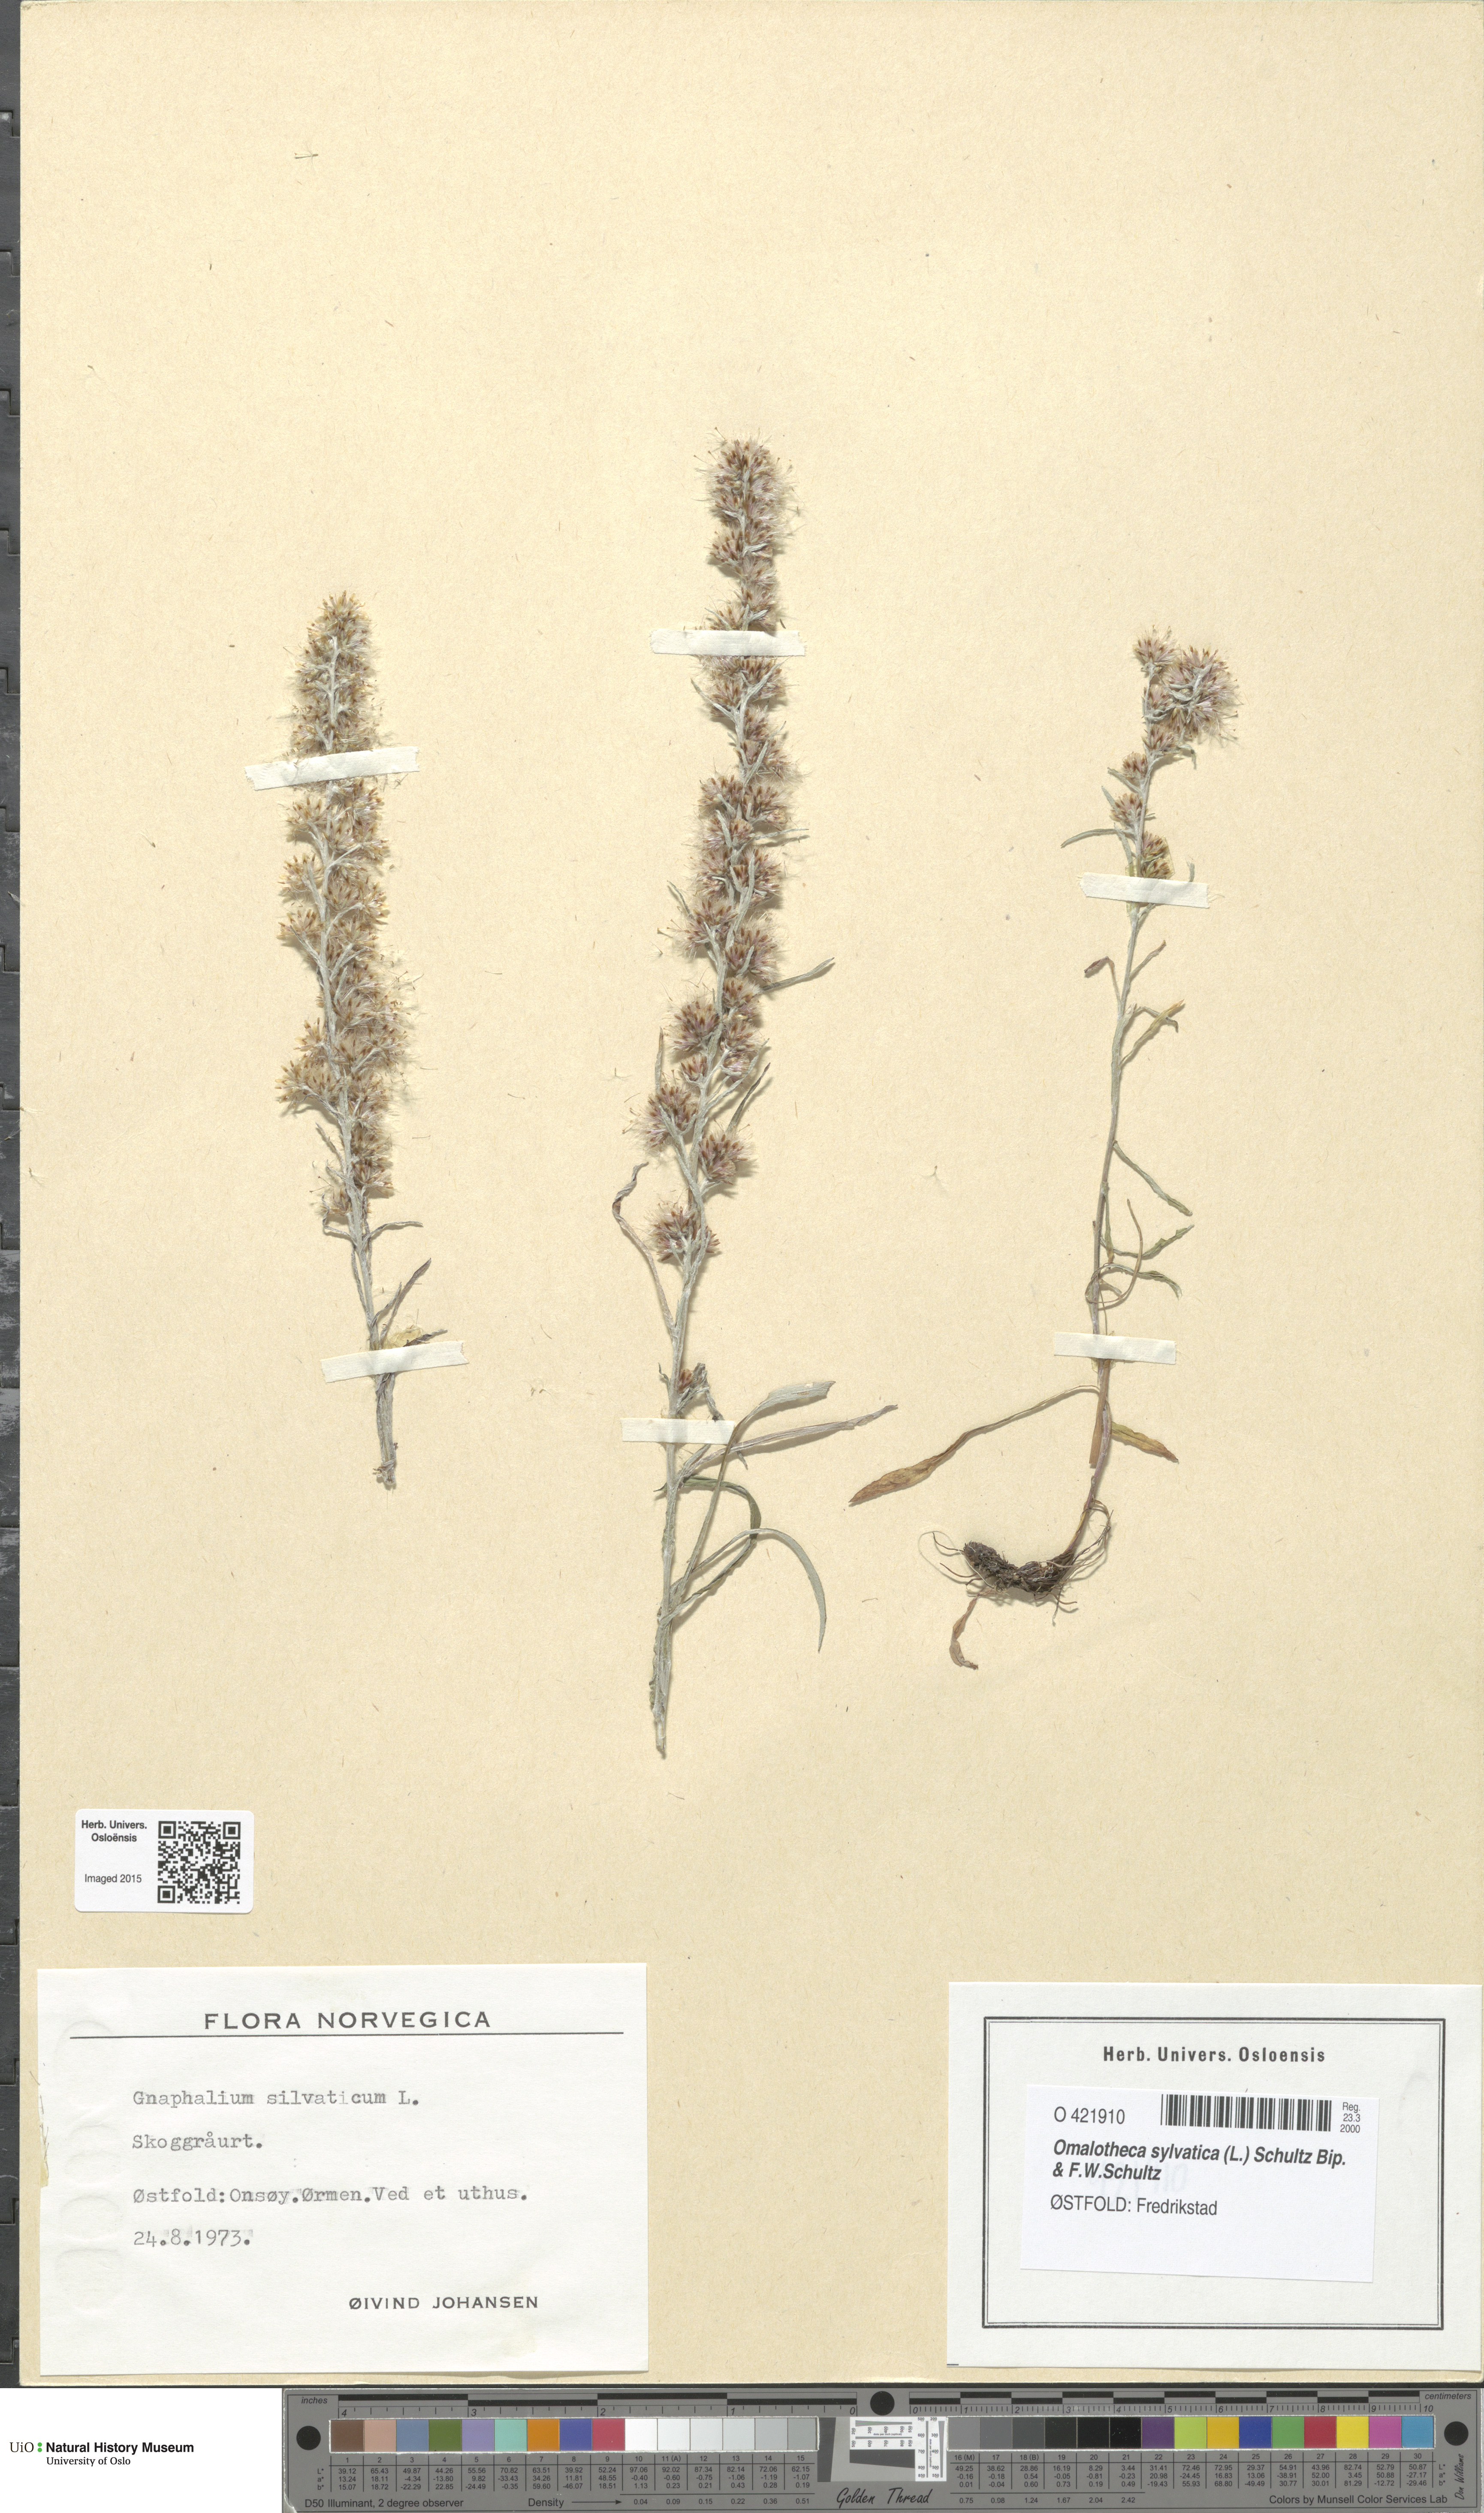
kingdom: Plantae
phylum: Tracheophyta
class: Magnoliopsida
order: Asterales
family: Asteraceae
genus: Omalotheca
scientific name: Omalotheca sylvatica
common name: Heath cudweed
